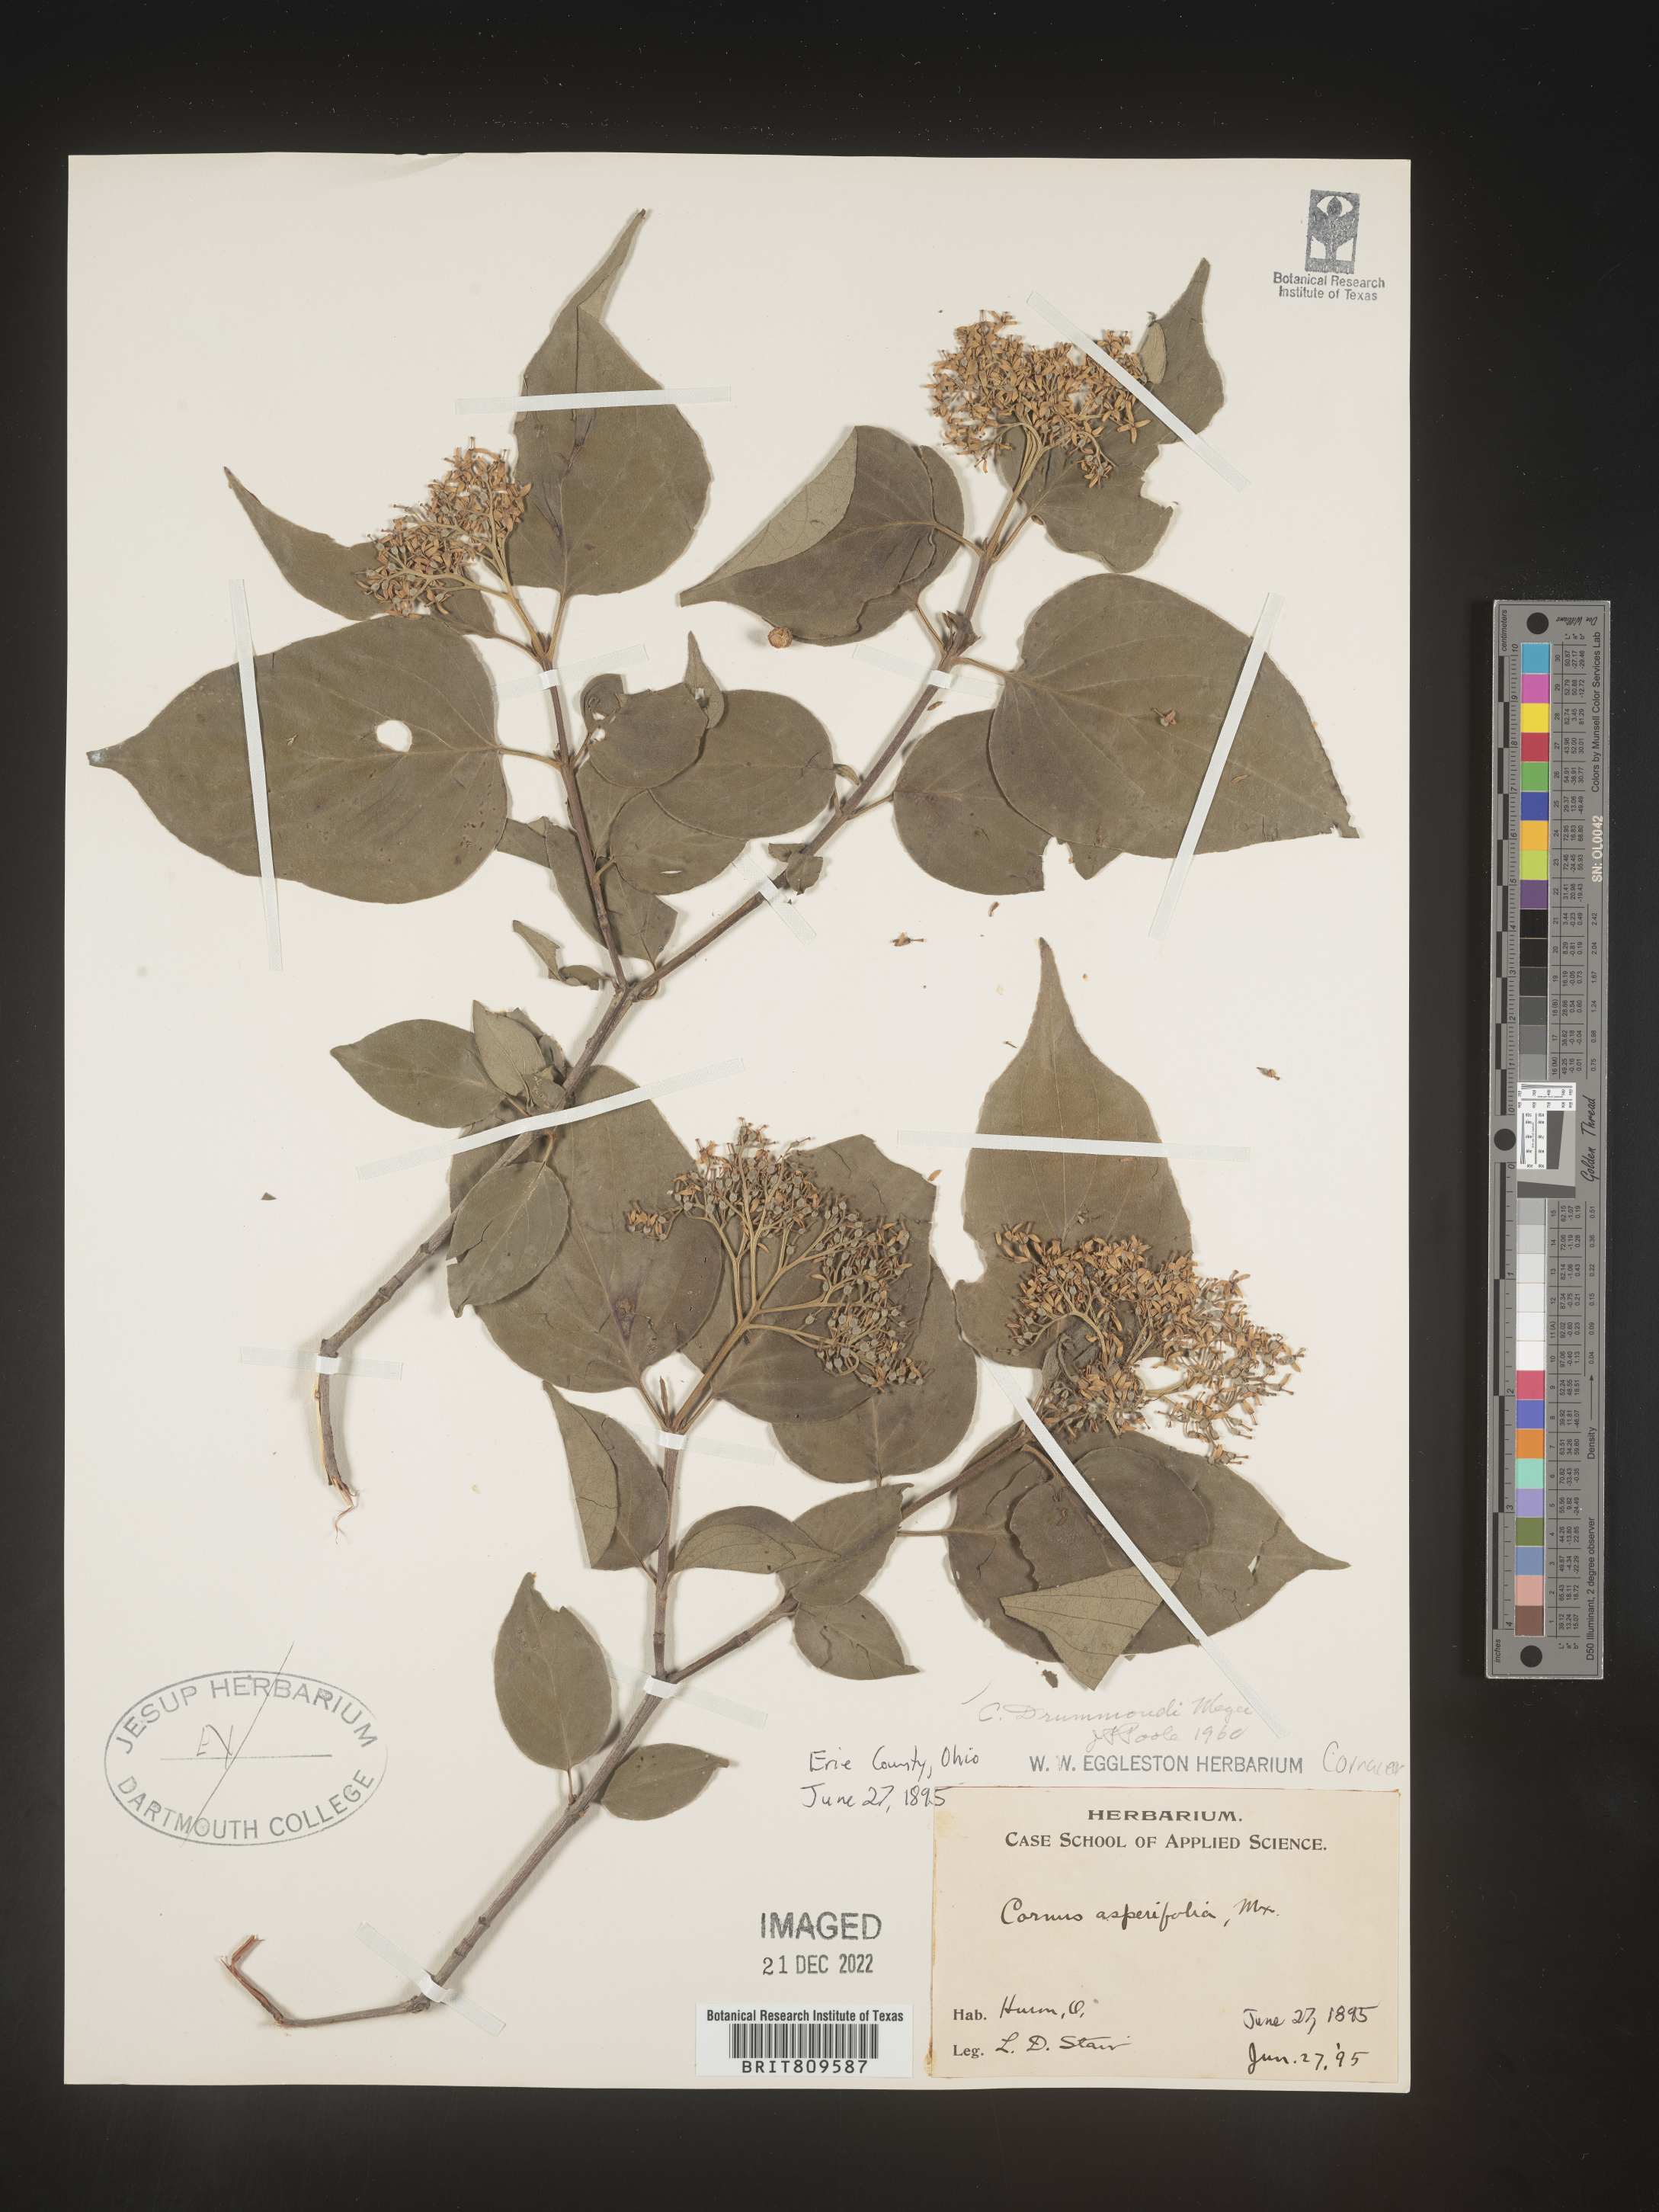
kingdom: Plantae
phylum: Tracheophyta
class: Magnoliopsida
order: Cornales
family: Cornaceae
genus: Cornus
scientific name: Cornus drummondii
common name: Rough-leaf dogwood
